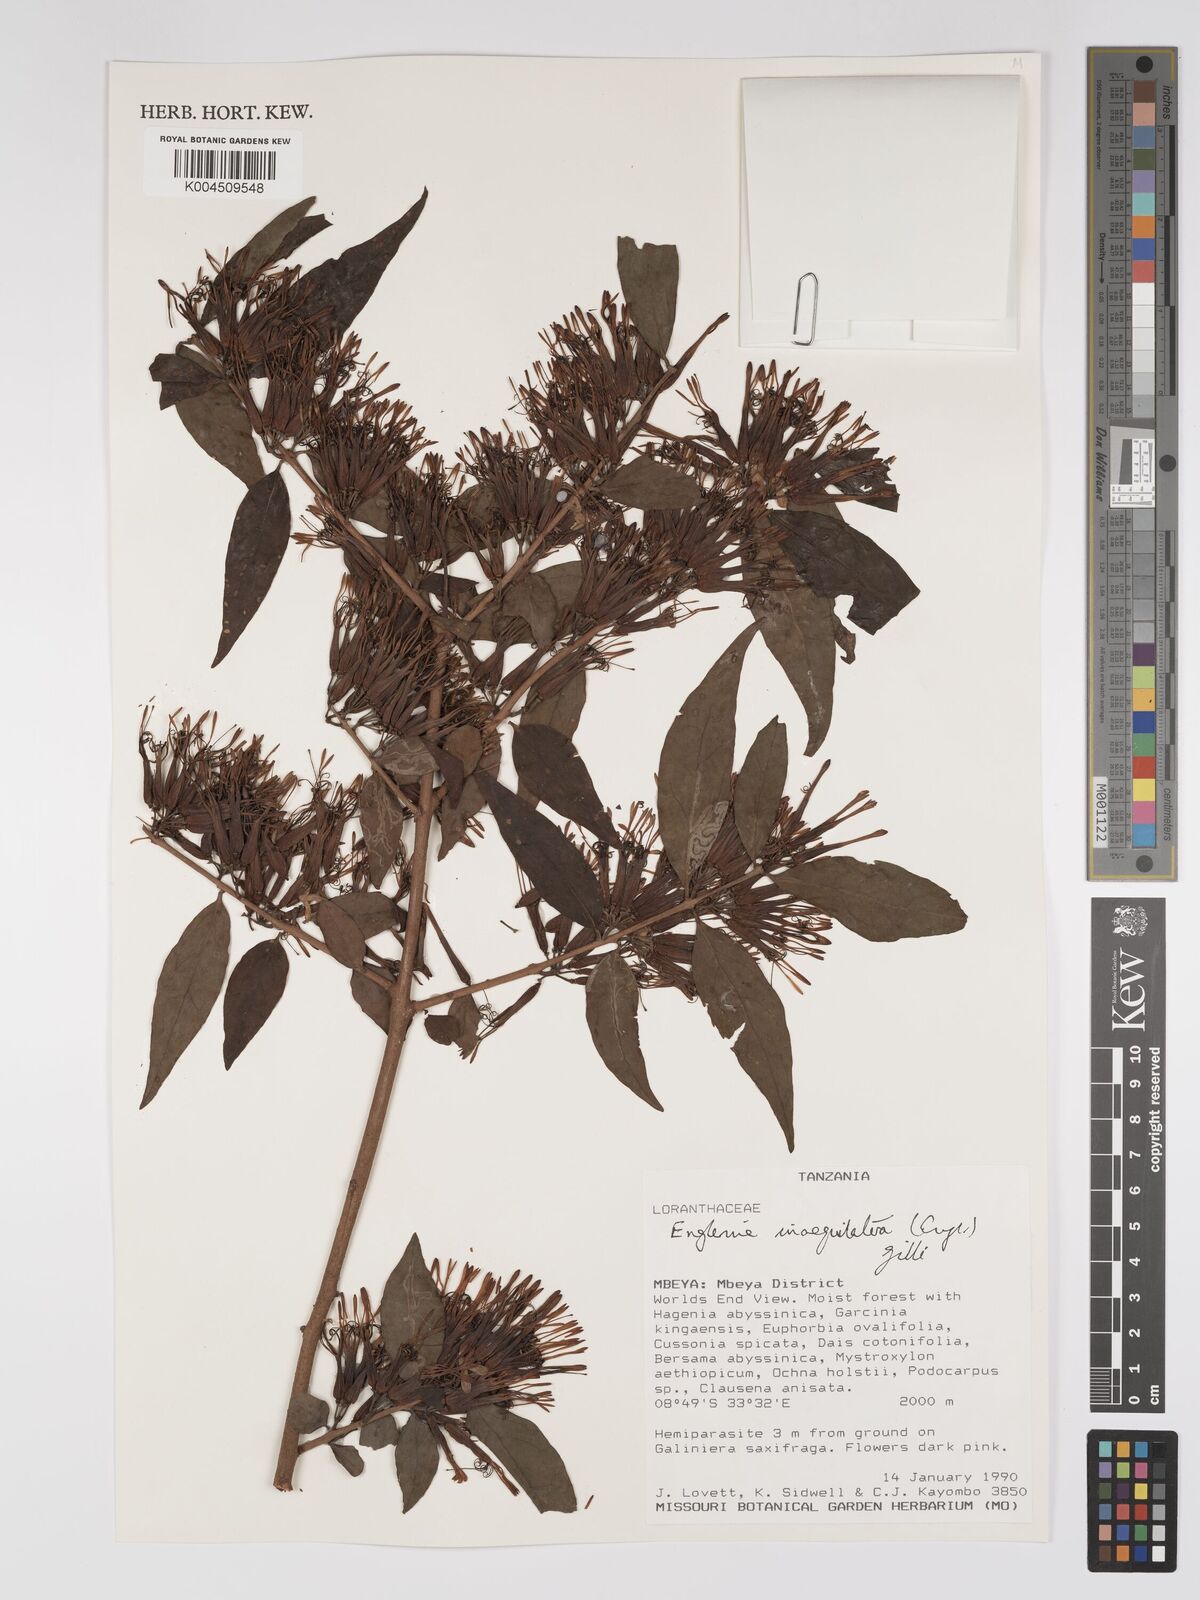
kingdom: Plantae
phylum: Tracheophyta
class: Magnoliopsida
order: Santalales
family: Loranthaceae
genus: Englerina
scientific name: Englerina inaequilatera
